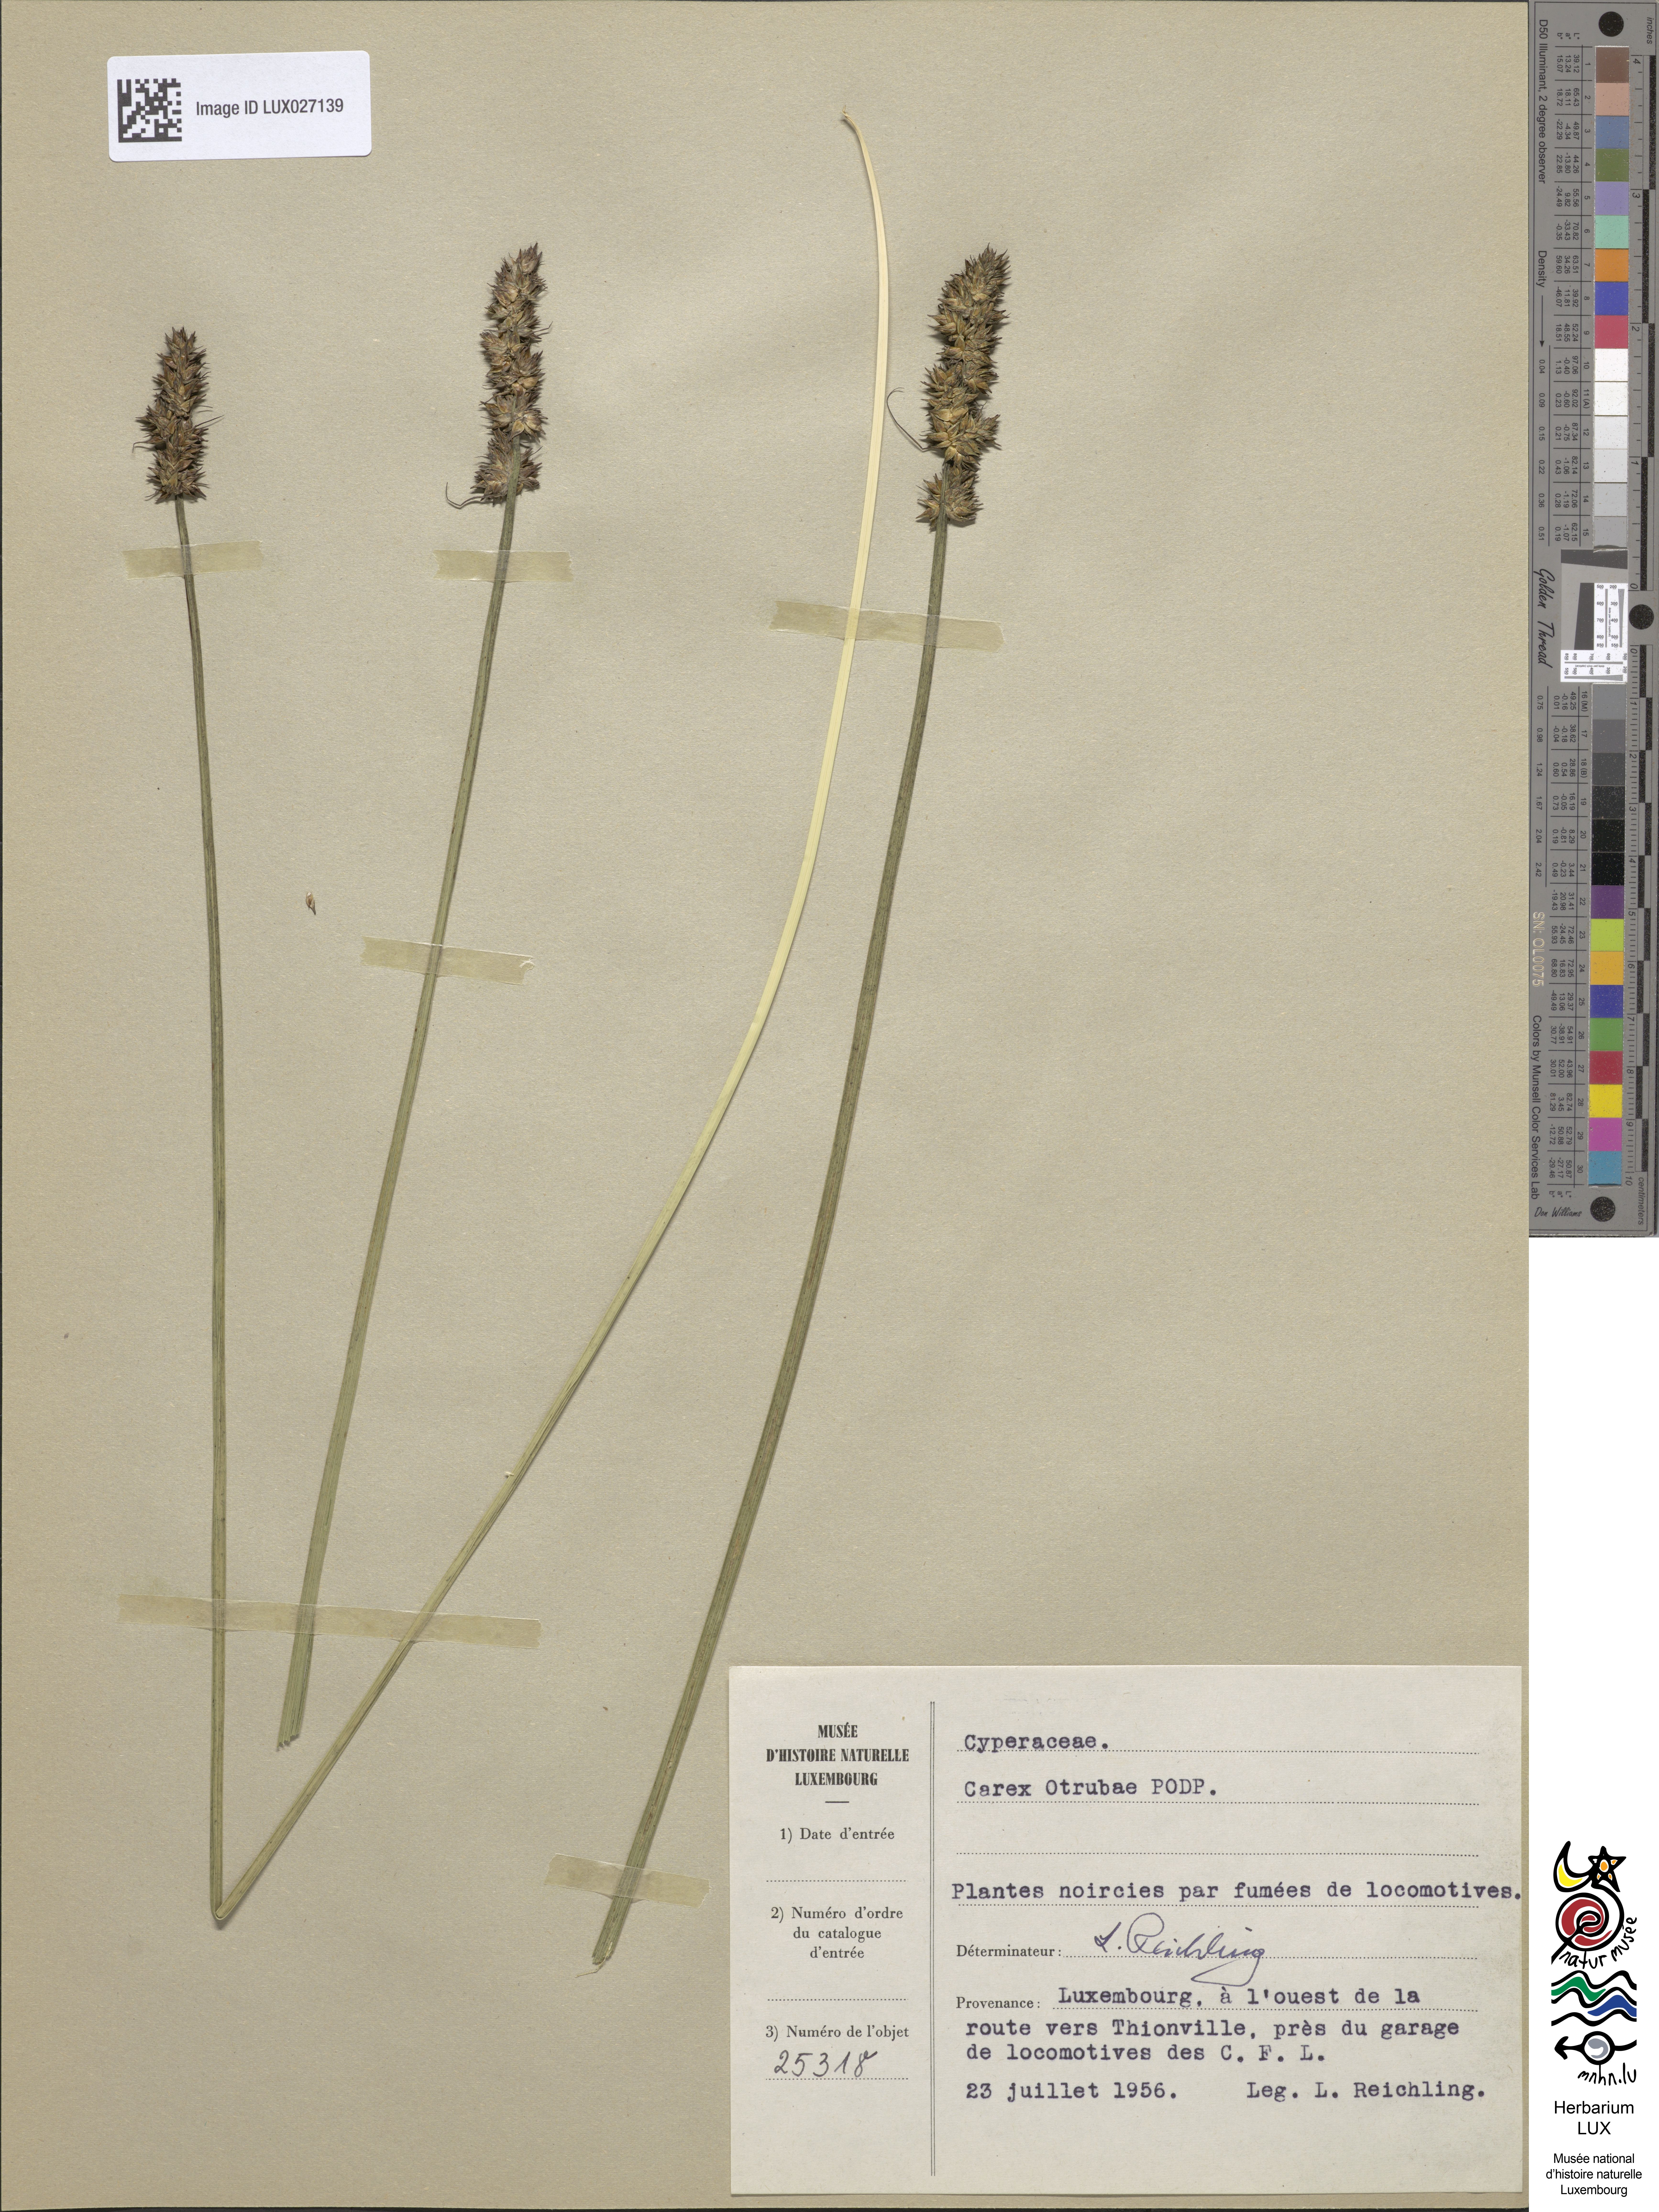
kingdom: Plantae
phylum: Tracheophyta
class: Liliopsida
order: Poales
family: Cyperaceae
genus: Carex
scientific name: Carex leersii
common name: Leers' sedge
